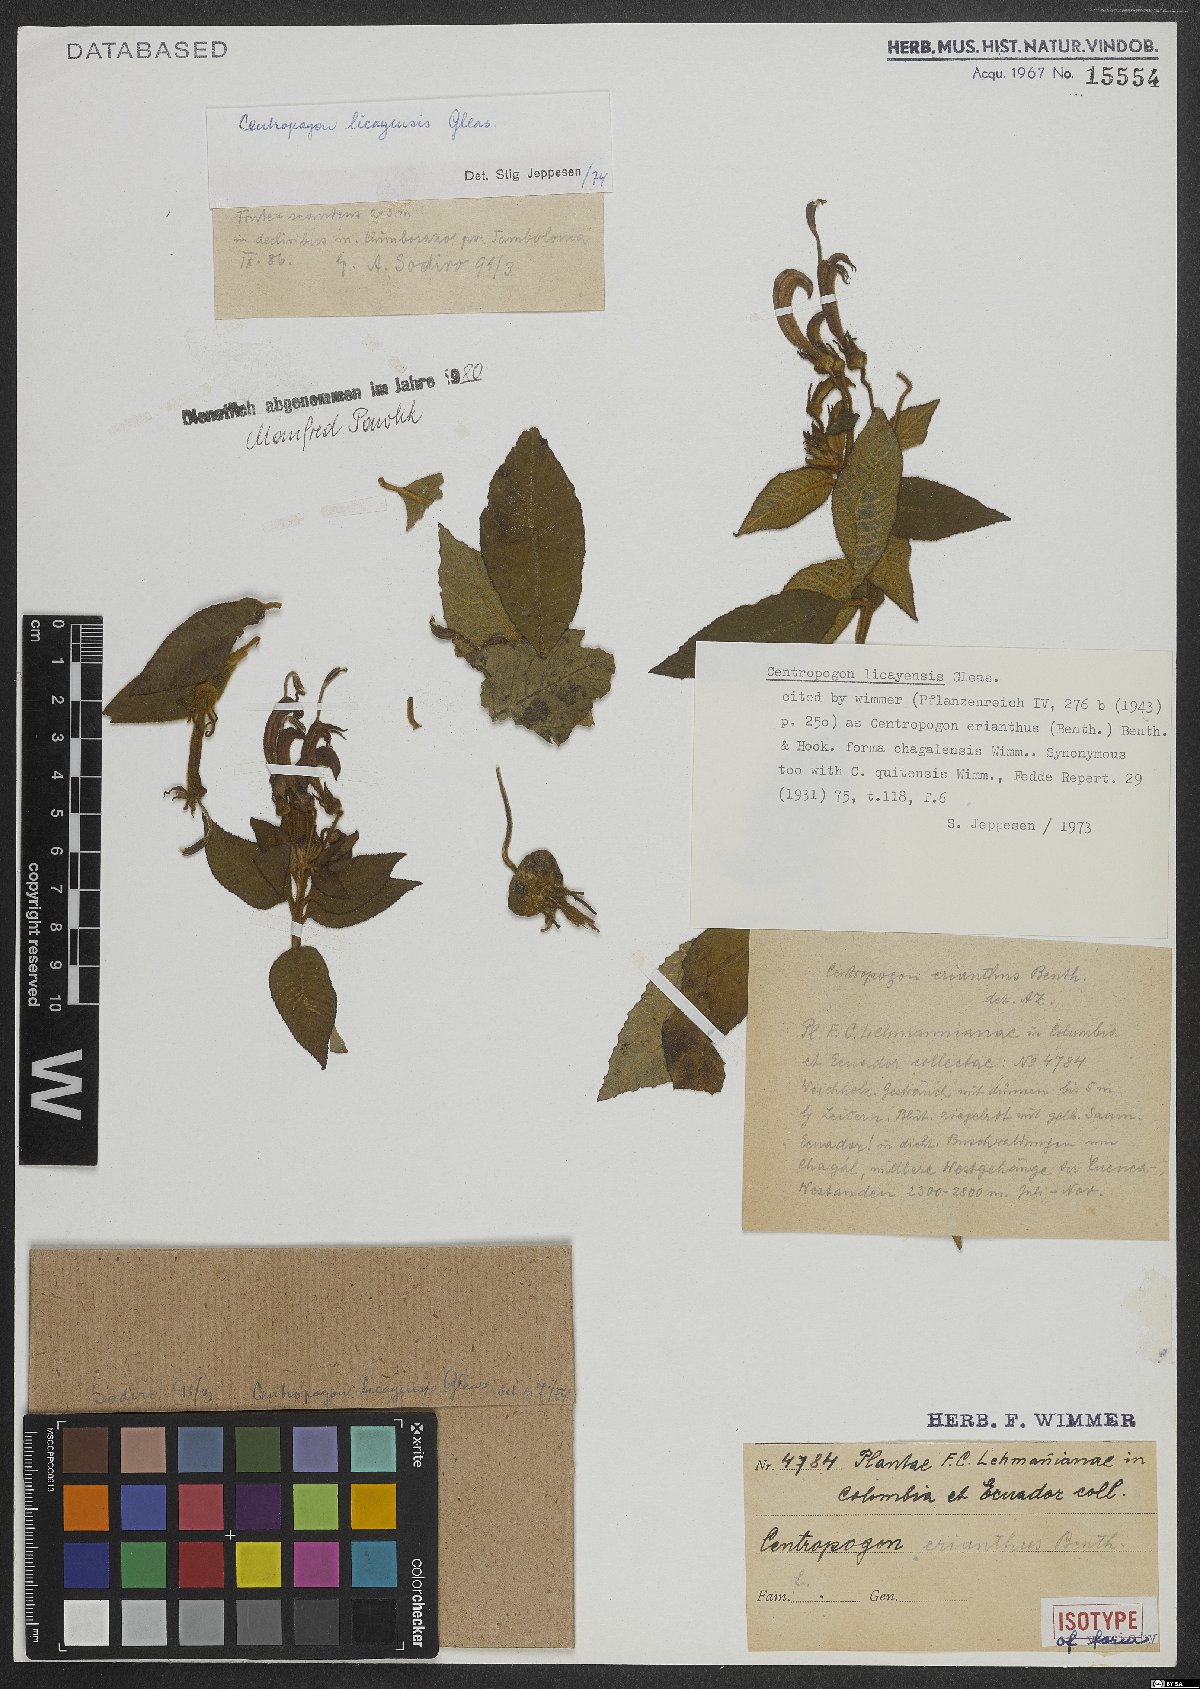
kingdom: Plantae
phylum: Tracheophyta
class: Magnoliopsida
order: Asterales
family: Campanulaceae
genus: Centropogon
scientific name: Centropogon licayensis
